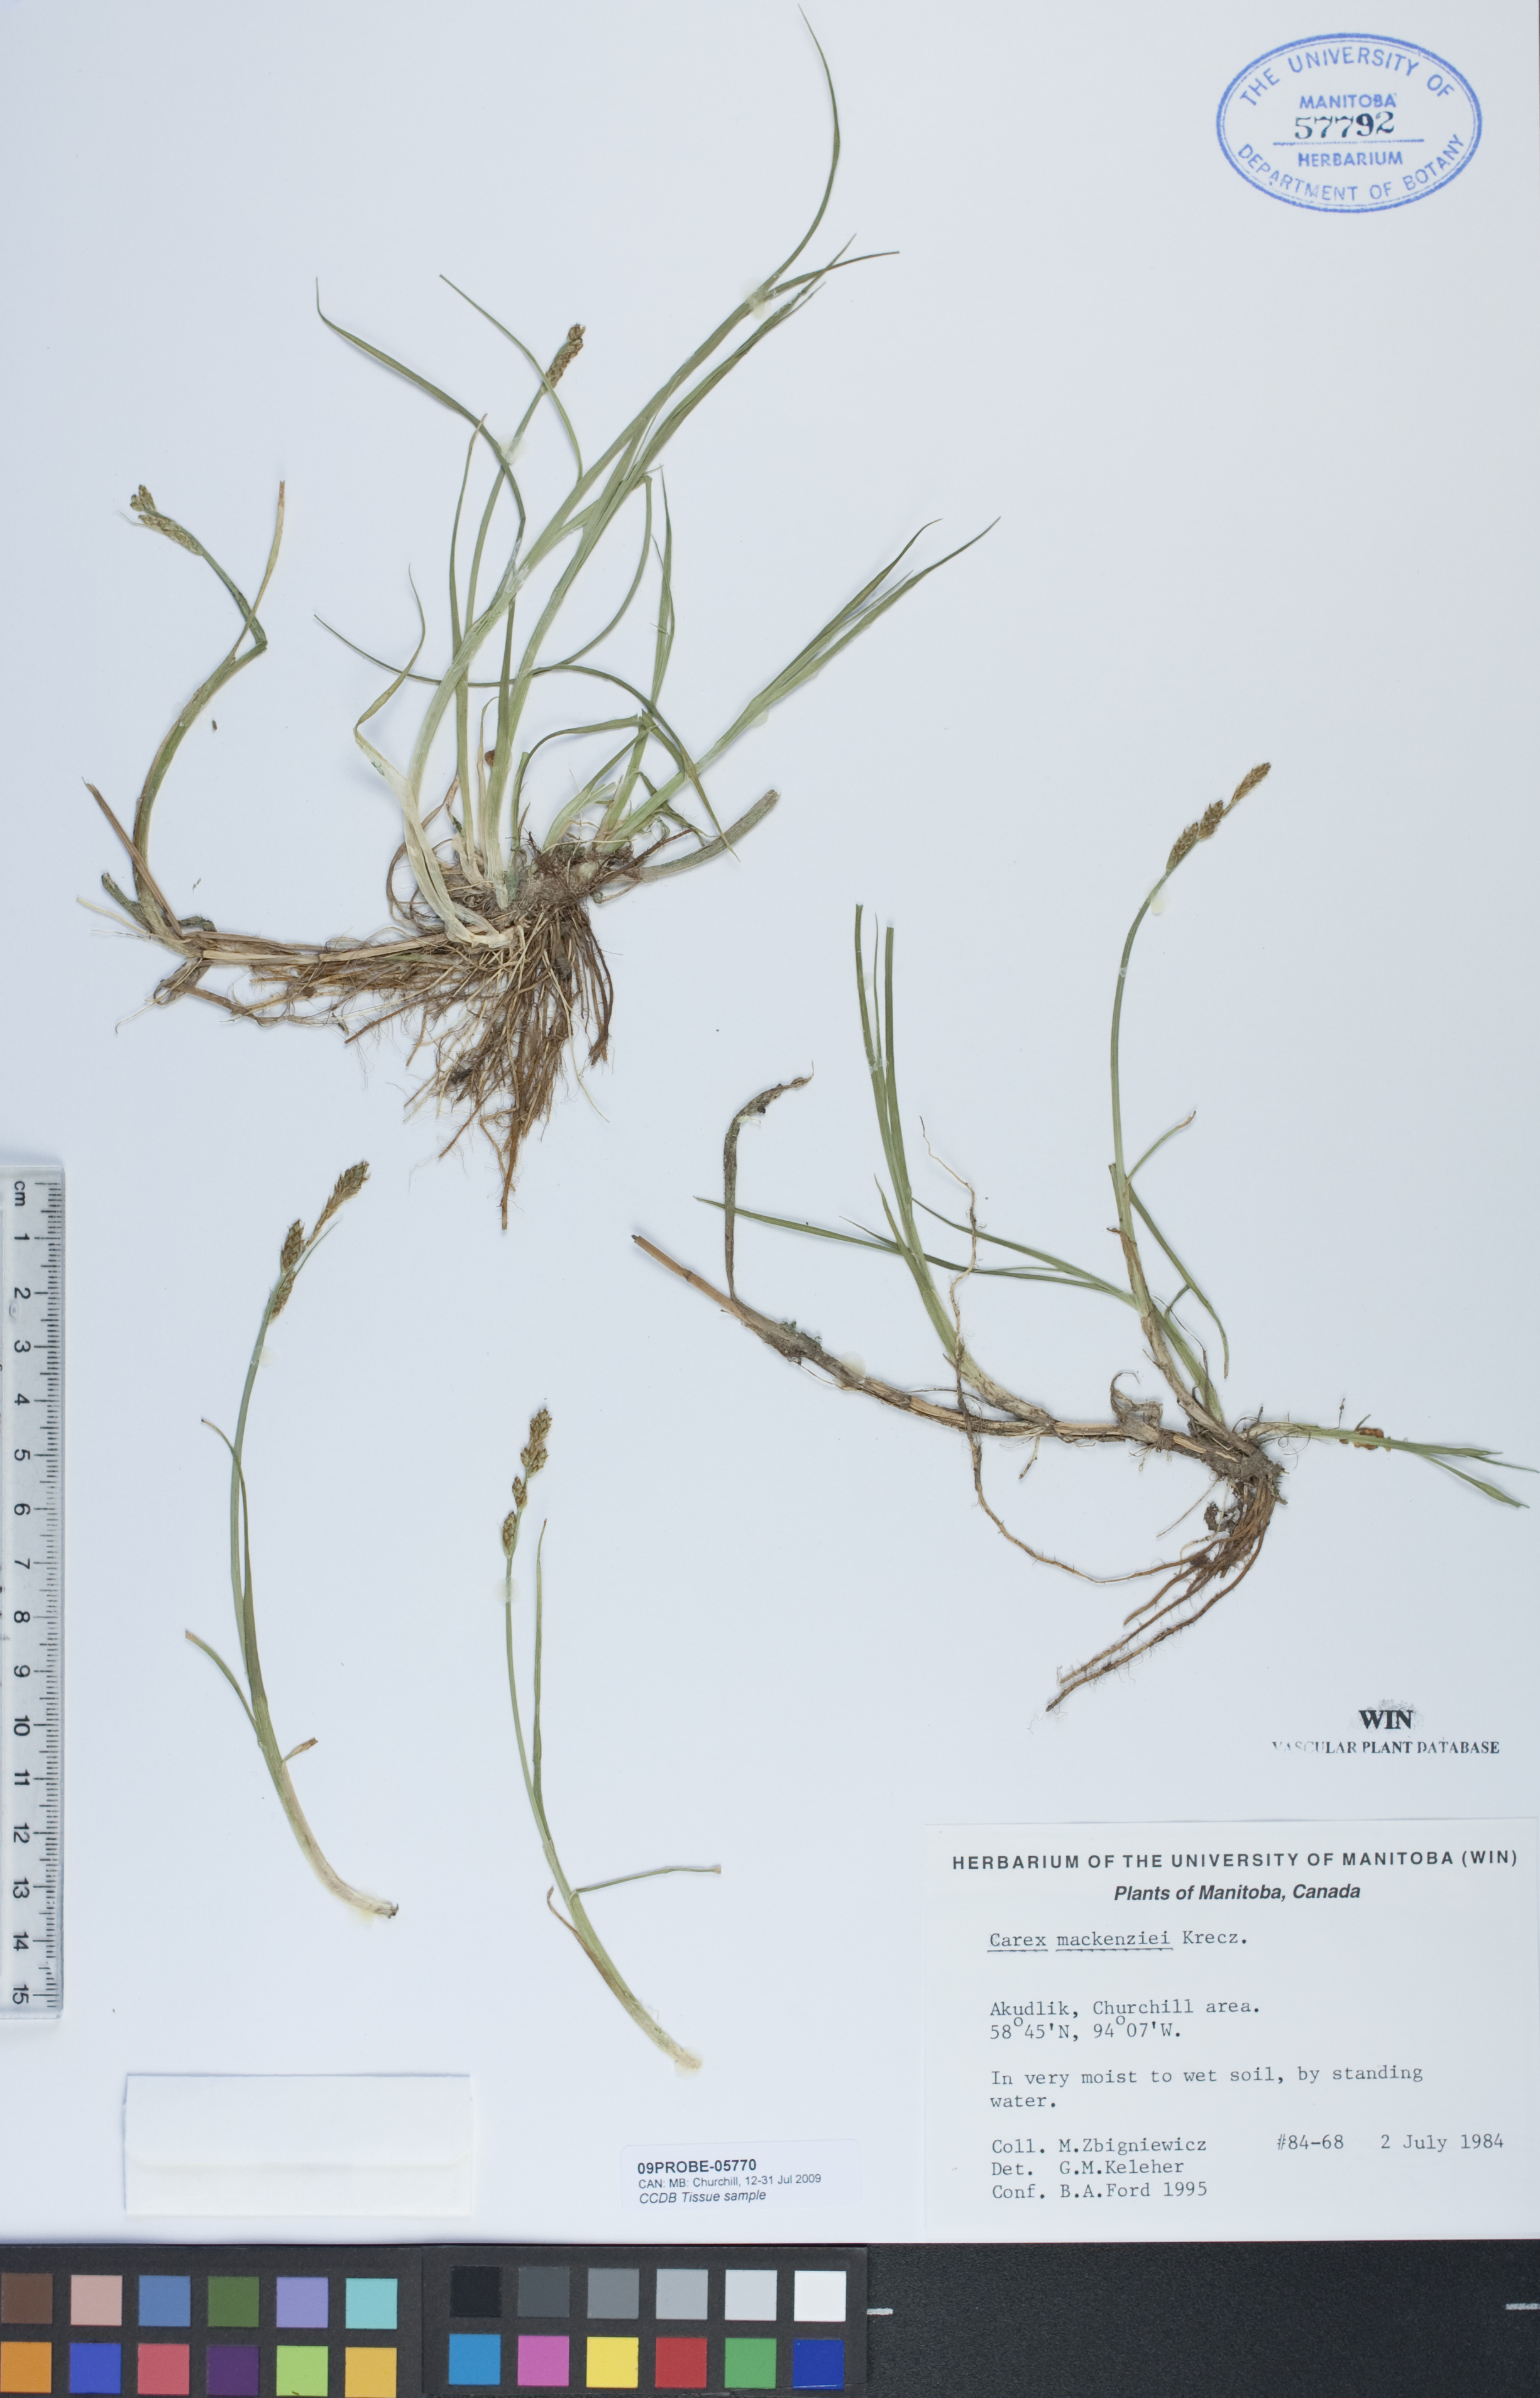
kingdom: Plantae
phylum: Tracheophyta
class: Liliopsida
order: Poales
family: Cyperaceae
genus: Carex
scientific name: Carex mackenziei
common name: Mackenzie's sedge
